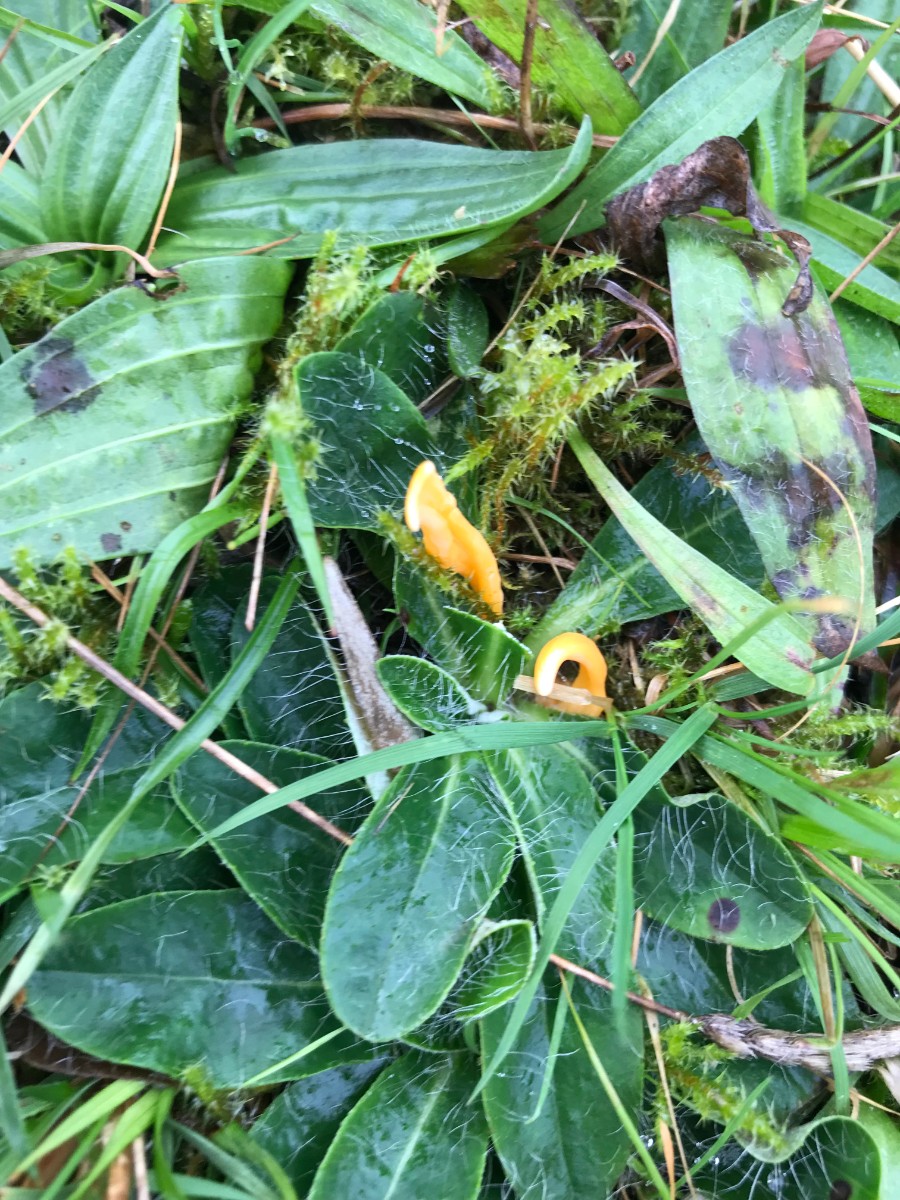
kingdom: Fungi
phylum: Basidiomycota
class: Agaricomycetes
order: Agaricales
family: Clavariaceae
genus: Clavulinopsis
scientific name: Clavulinopsis luteoalba
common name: abrikos-køllesvamp
